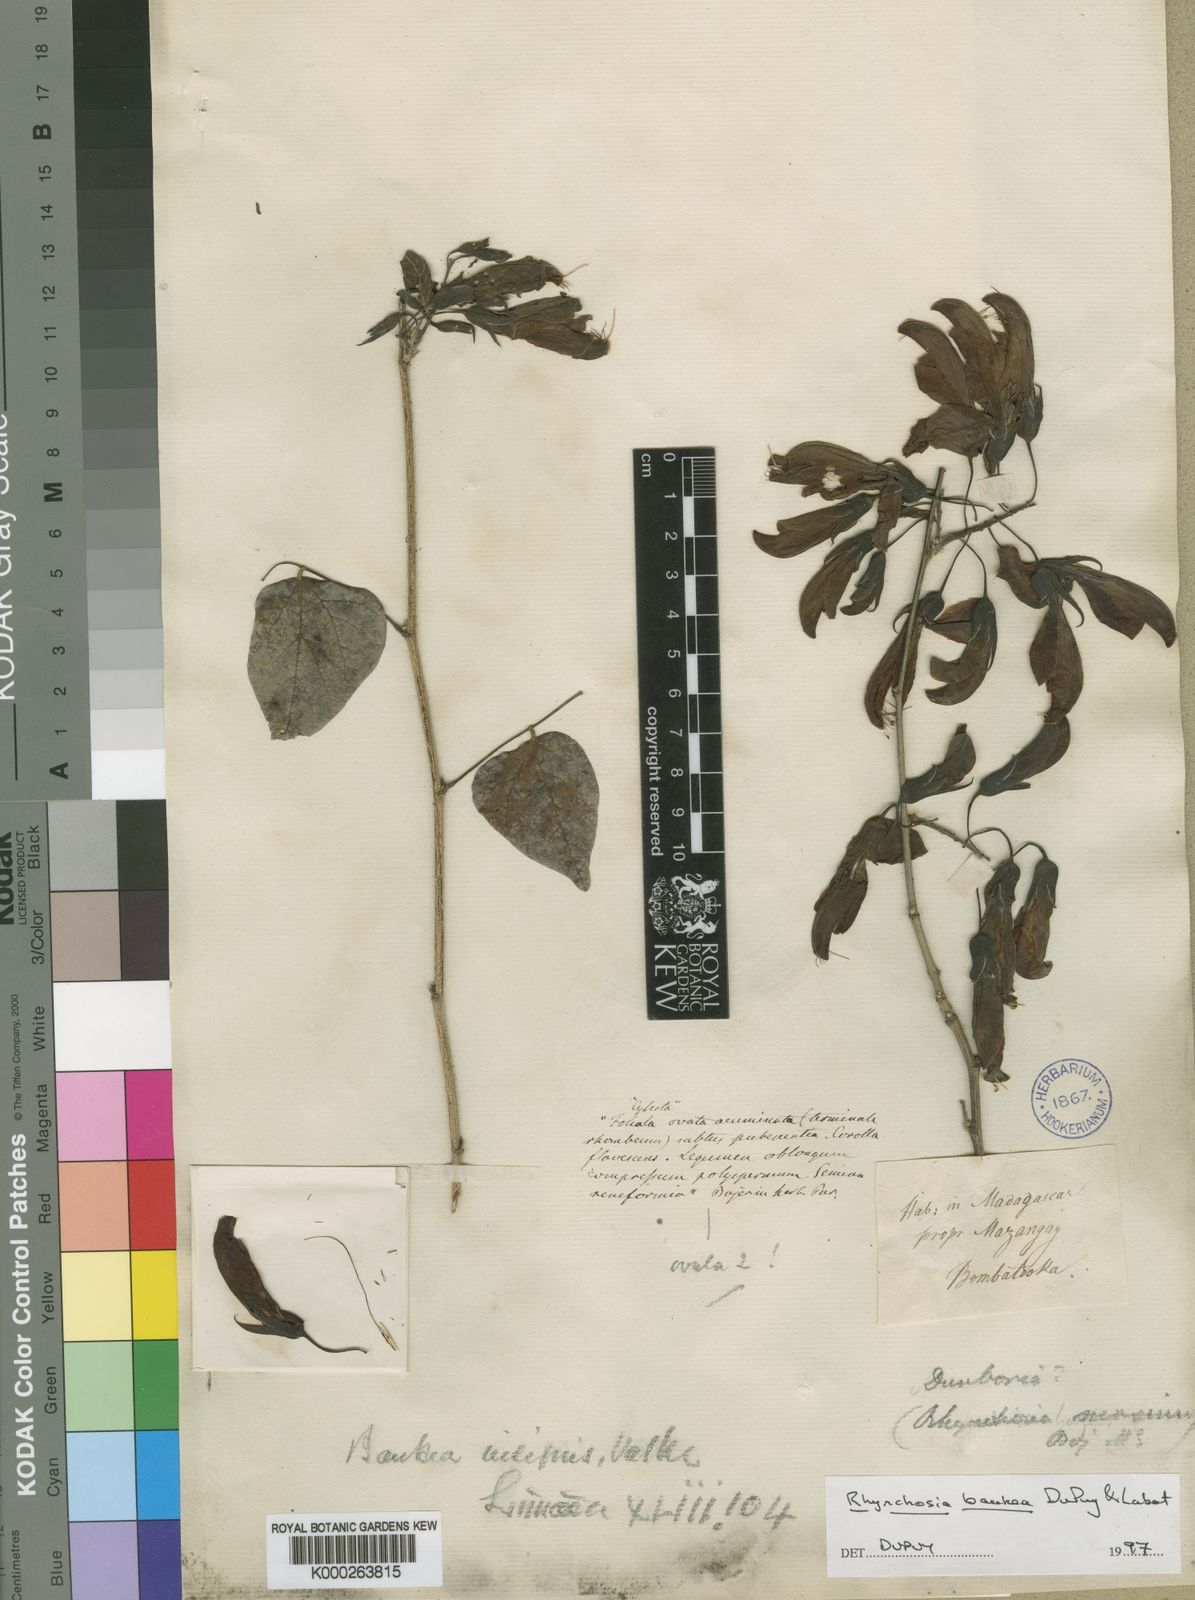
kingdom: Plantae
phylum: Tracheophyta
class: Magnoliopsida
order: Fabales
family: Fabaceae
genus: Rhynchosia
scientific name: Rhynchosia baukea
